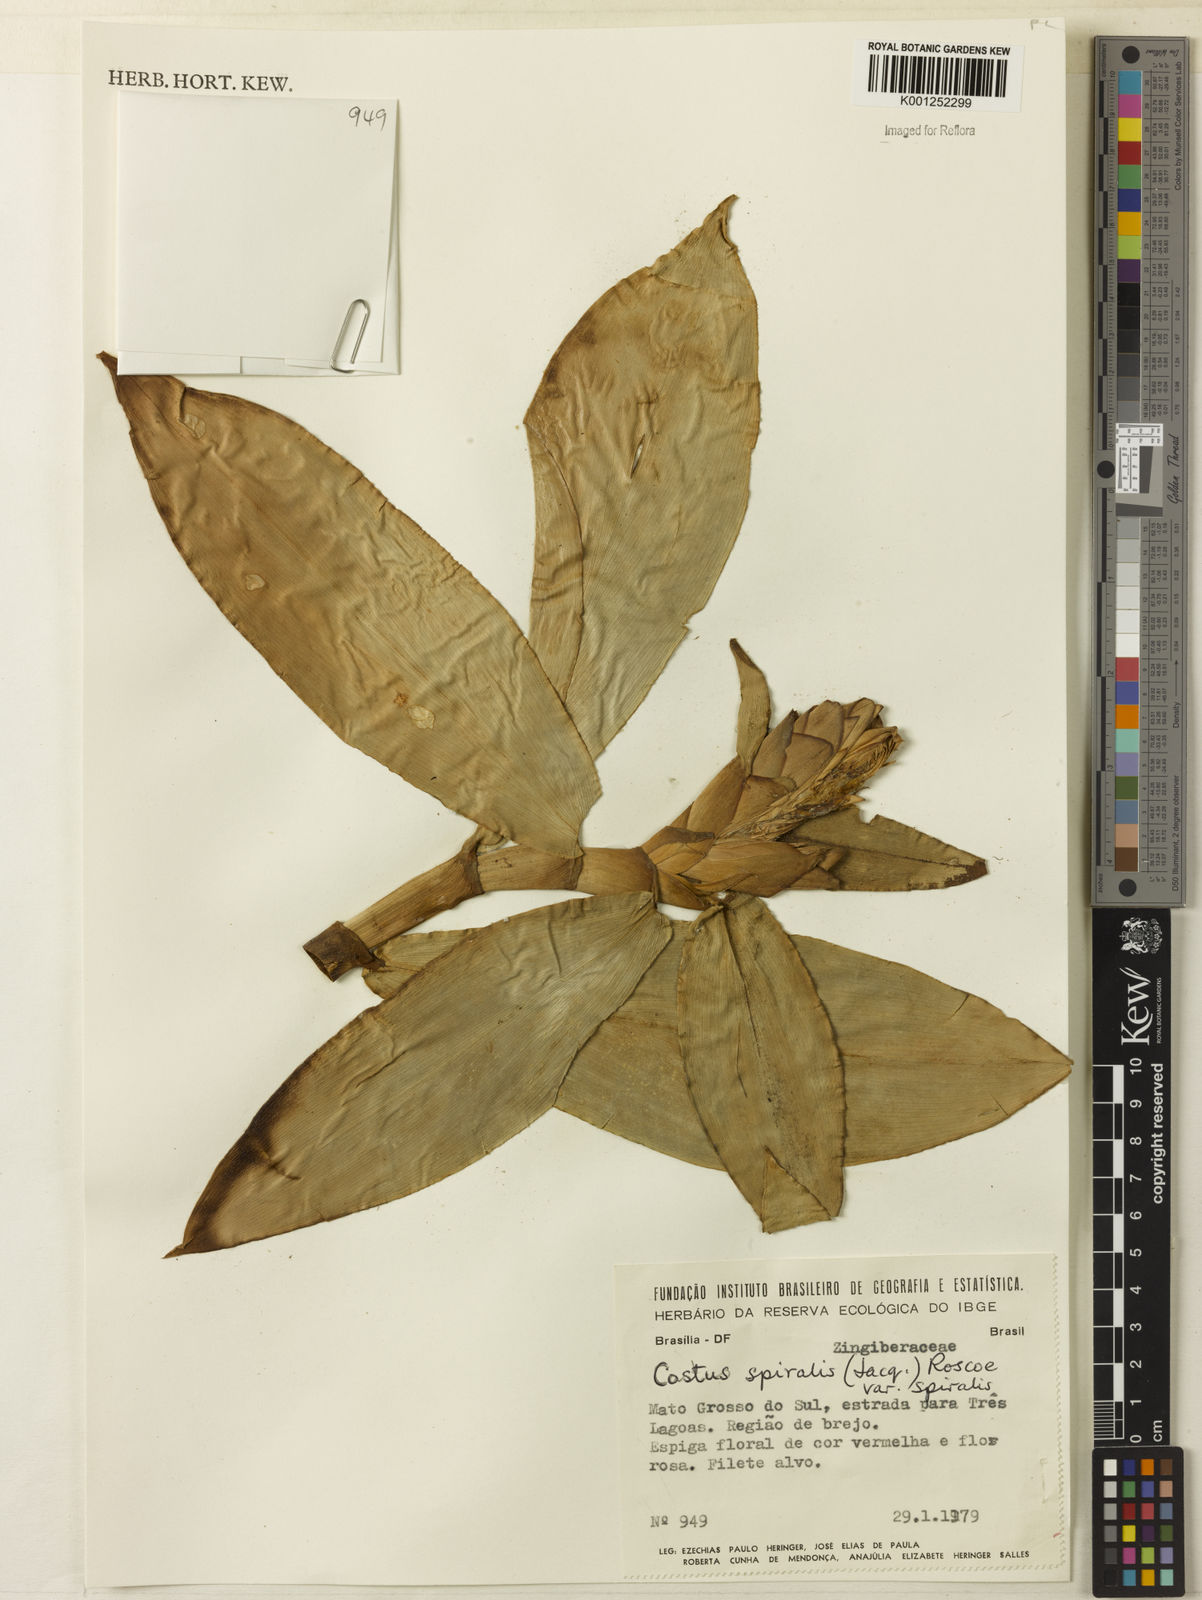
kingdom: Plantae
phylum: Tracheophyta
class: Liliopsida
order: Zingiberales
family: Costaceae
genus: Costus
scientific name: Costus spiralis
